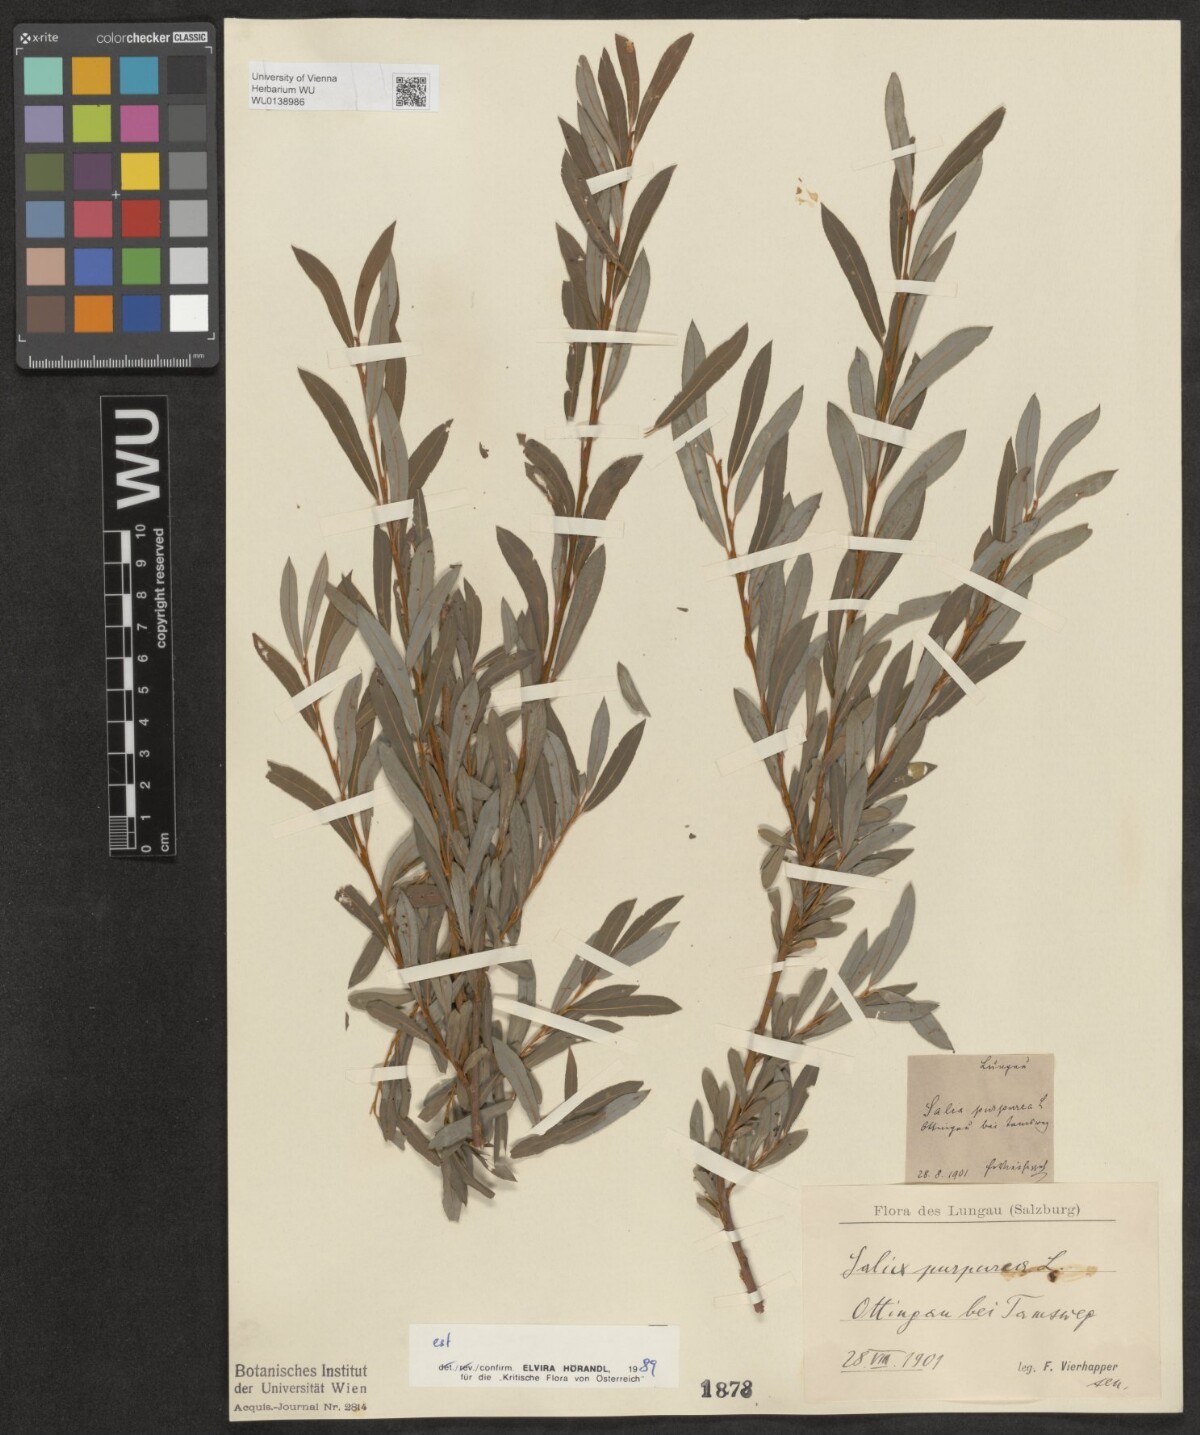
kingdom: Plantae
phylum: Tracheophyta
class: Magnoliopsida
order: Malpighiales
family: Salicaceae
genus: Salix
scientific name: Salix purpurea
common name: Purple willow
